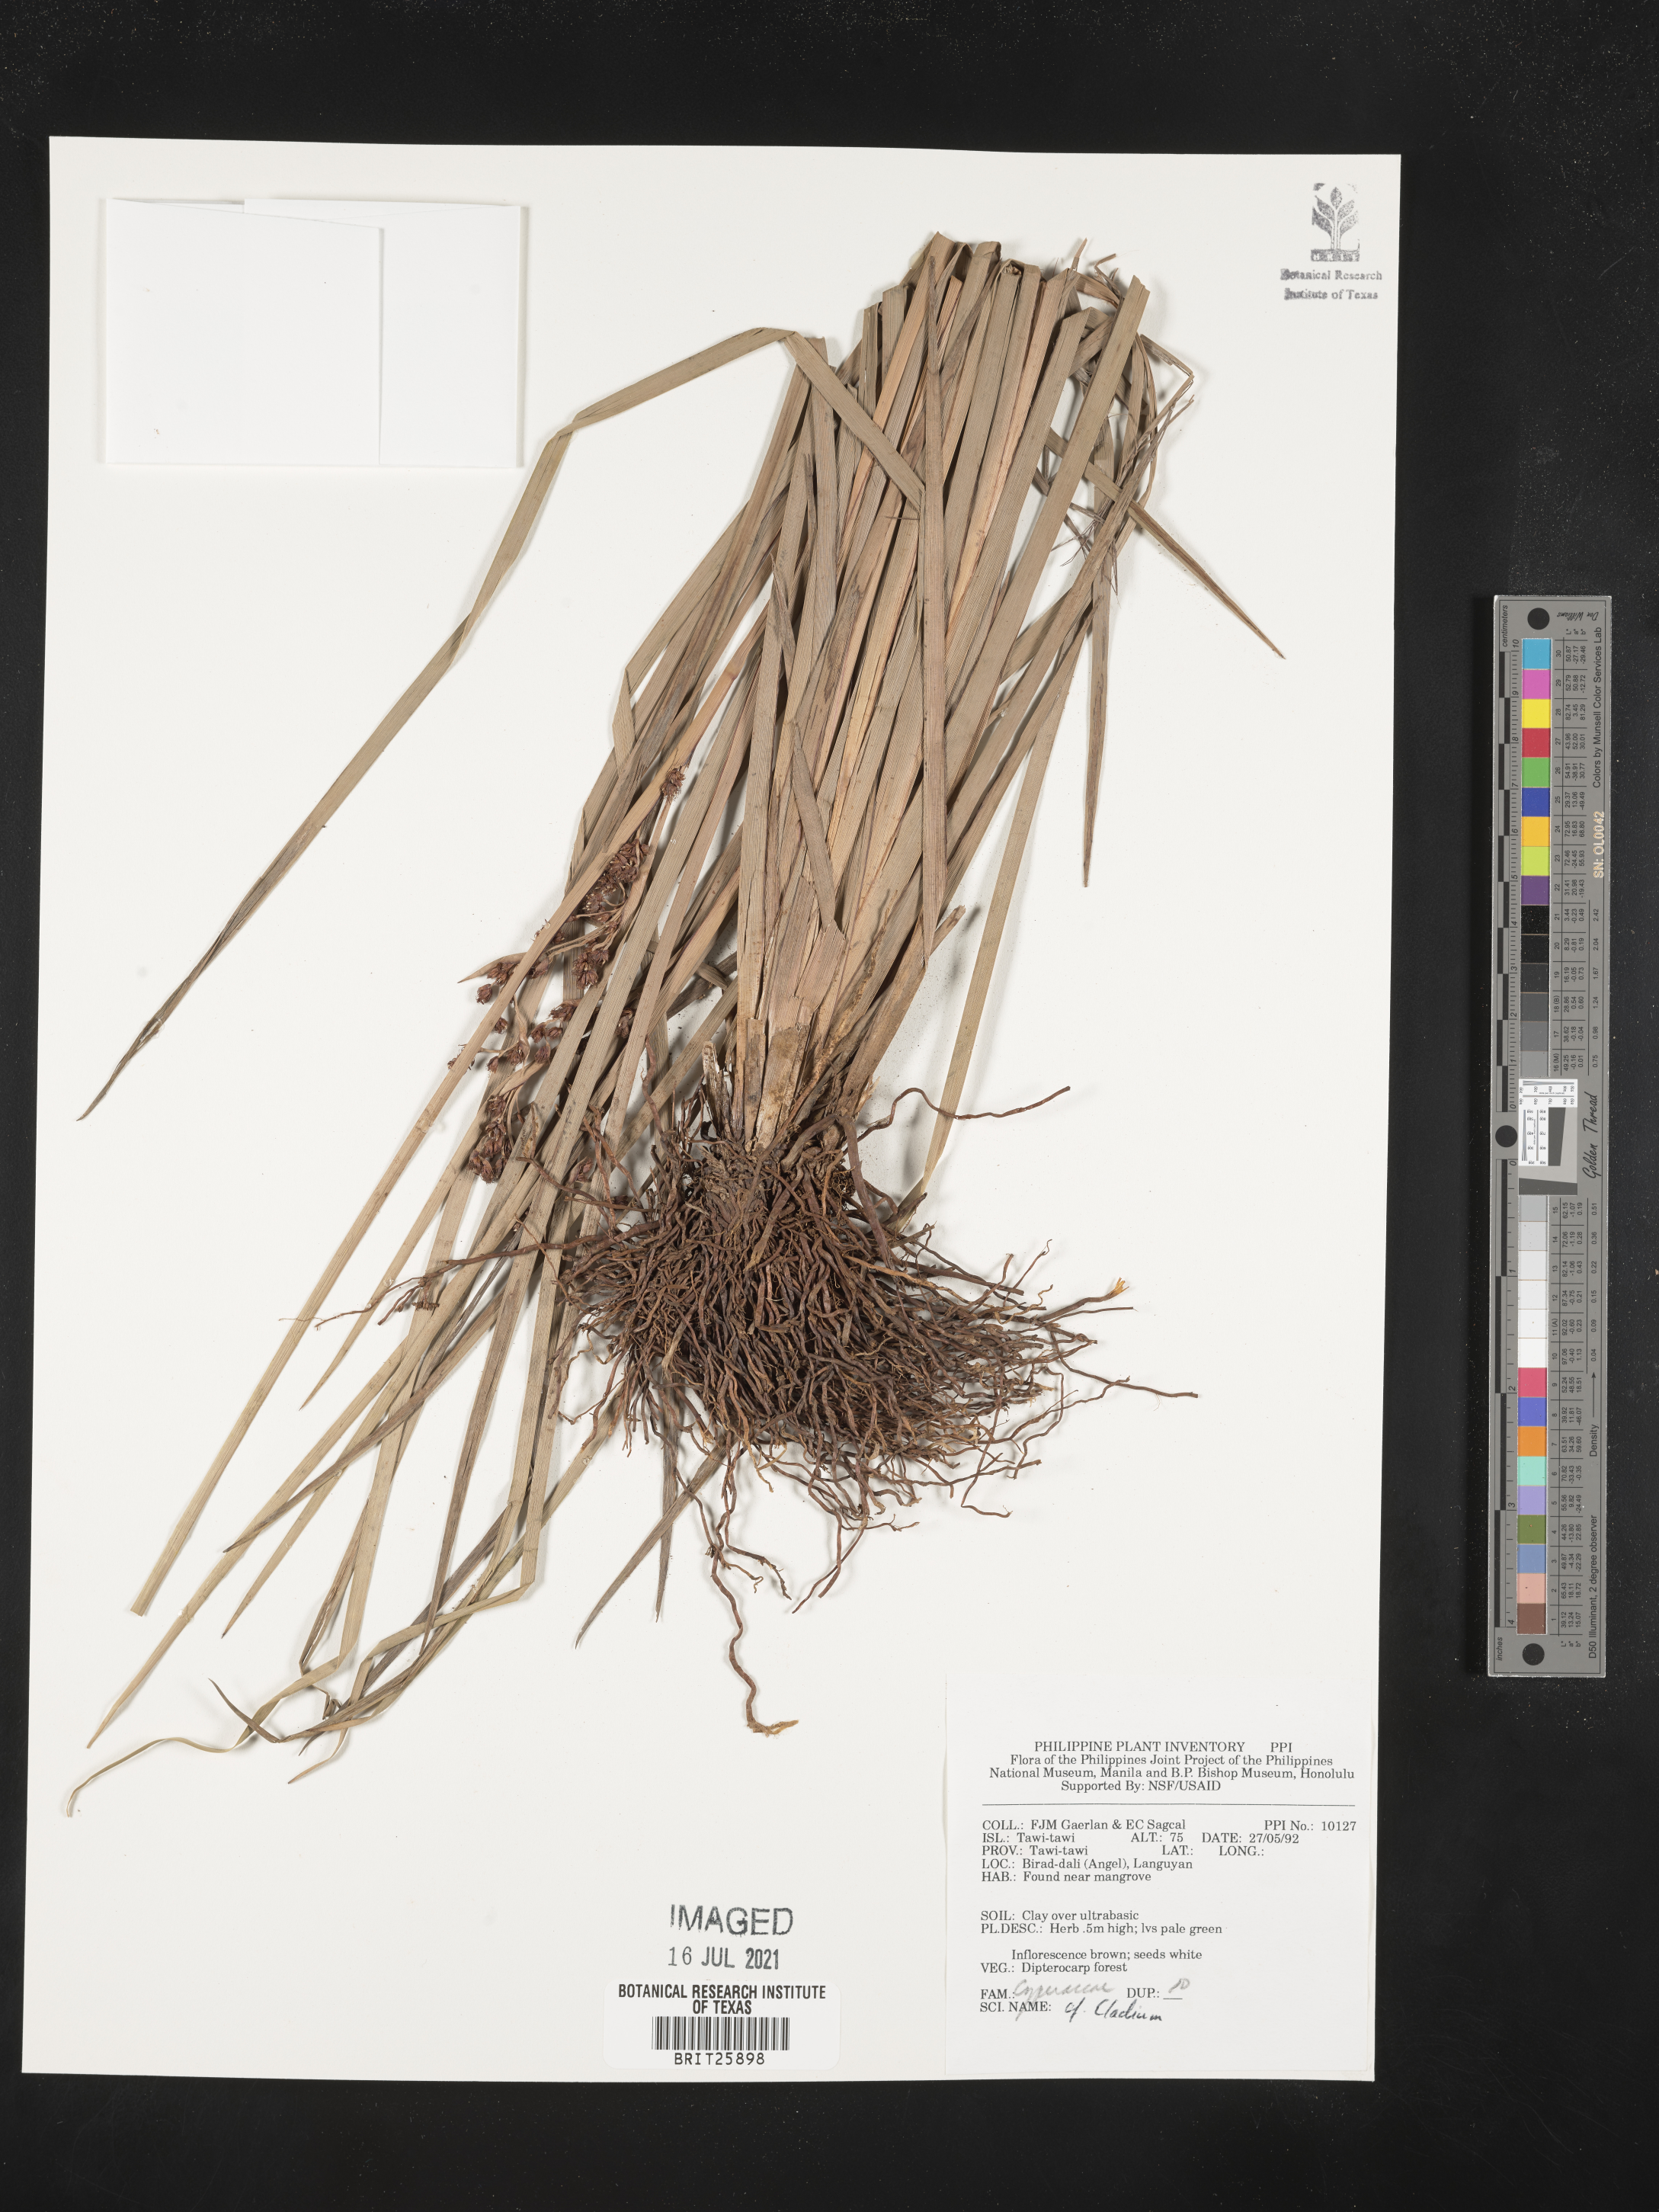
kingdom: Plantae
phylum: Tracheophyta
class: Liliopsida
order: Poales
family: Cyperaceae
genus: Cladium
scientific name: Cladium
